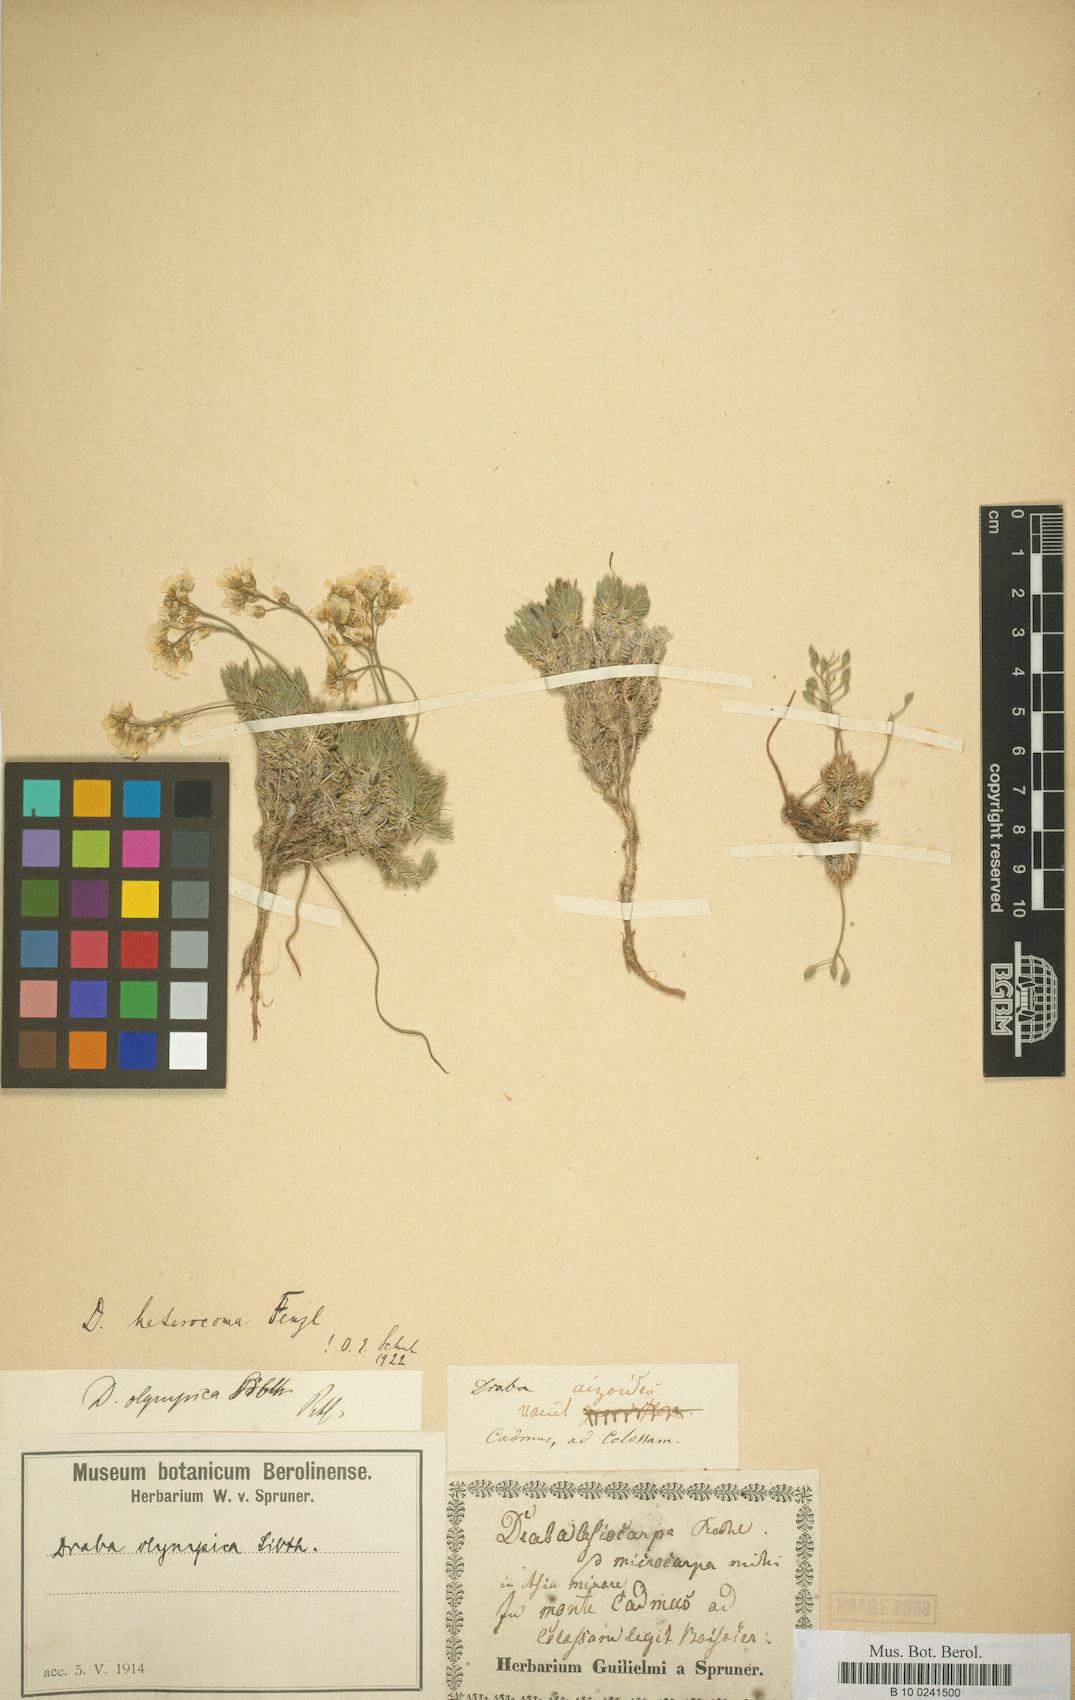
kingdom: Plantae
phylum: Tracheophyta
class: Magnoliopsida
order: Brassicales
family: Brassicaceae
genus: Draba
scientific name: Draba heterocoma
